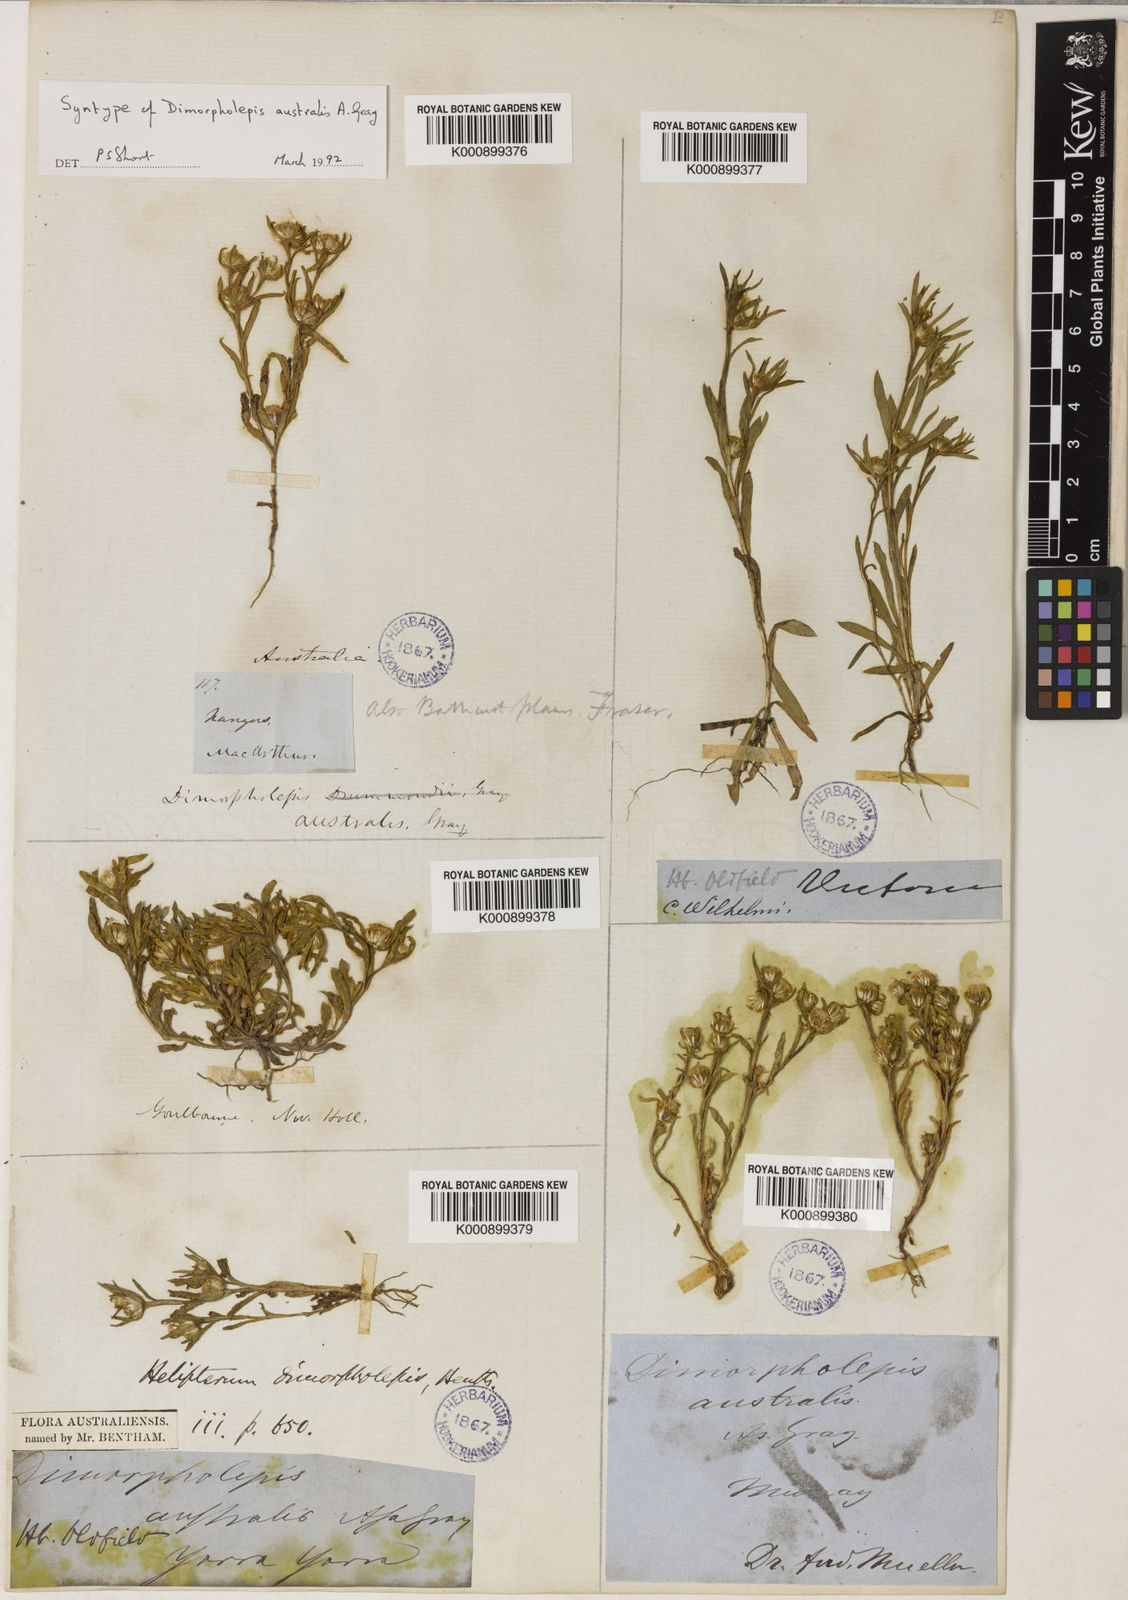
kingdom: Plantae
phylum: Tracheophyta
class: Magnoliopsida
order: Asterales
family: Asteraceae
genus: Triptilodiscus
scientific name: Triptilodiscus pygmaeus
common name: Common sunray
